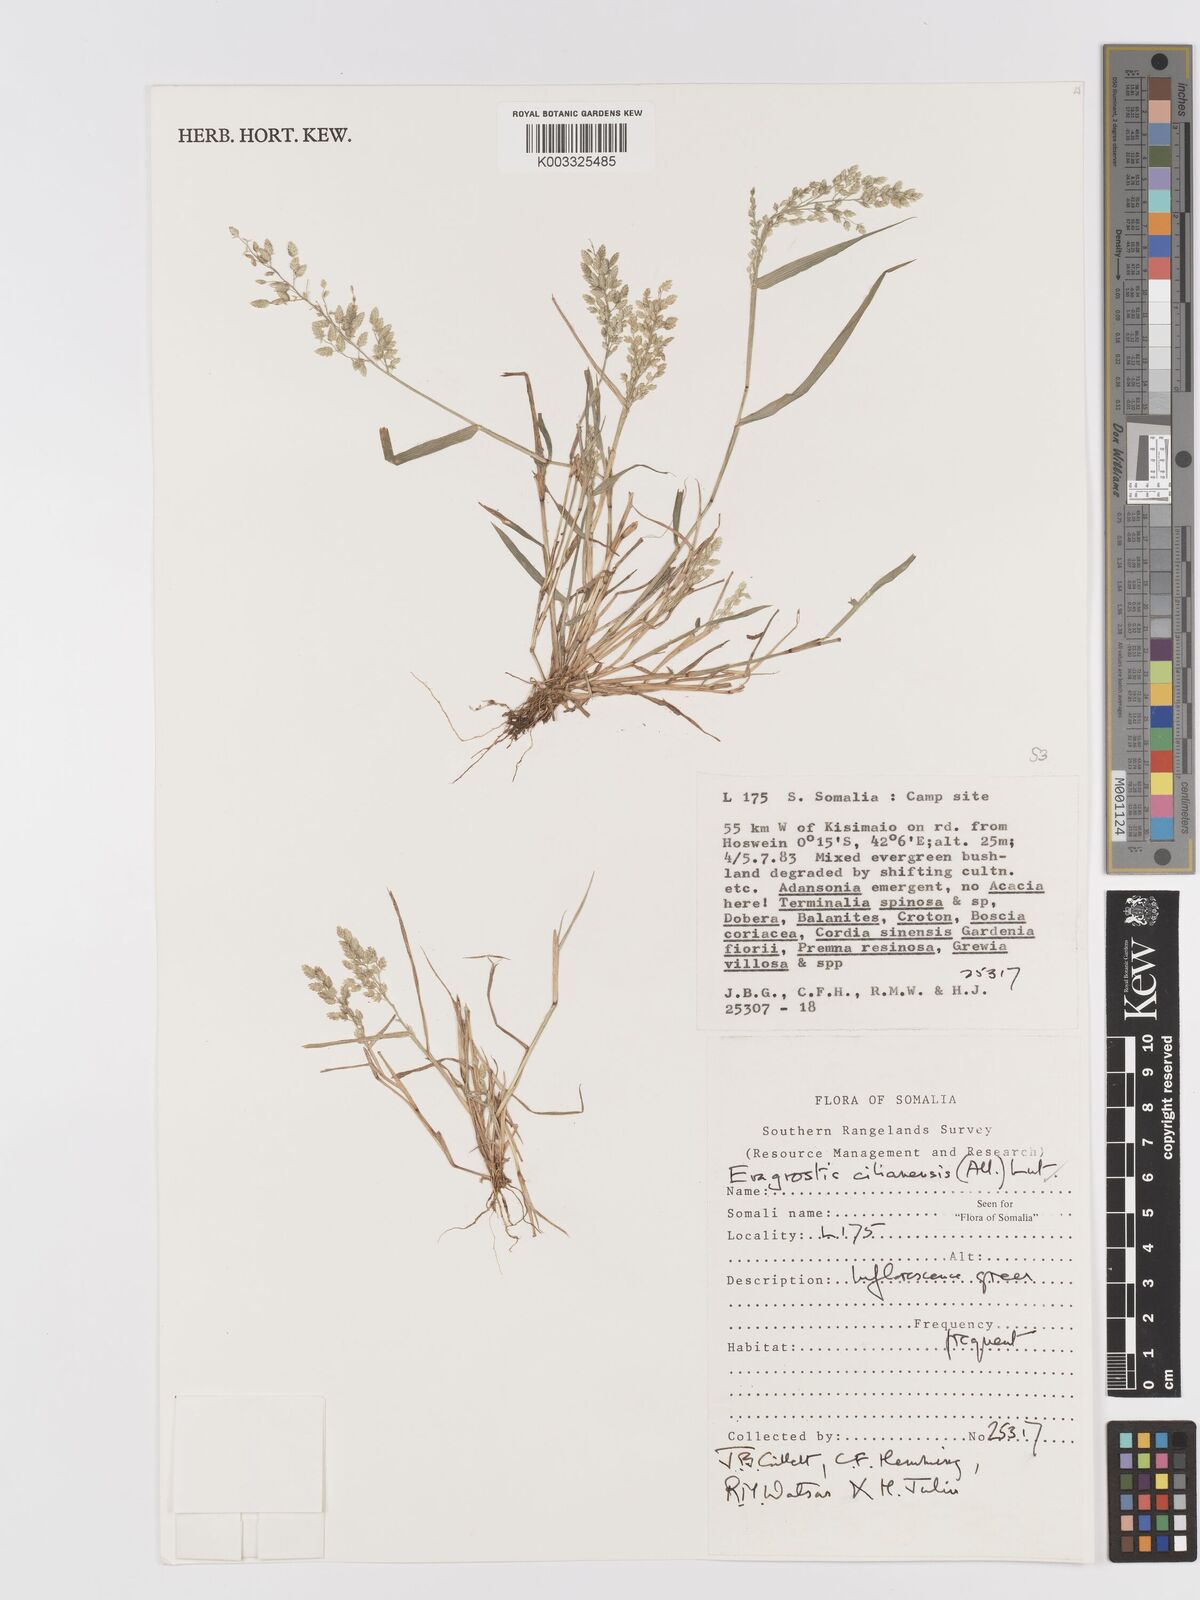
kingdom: Plantae
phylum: Tracheophyta
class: Liliopsida
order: Poales
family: Poaceae
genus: Eragrostis
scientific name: Eragrostis cilianensis
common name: Stinkgrass
